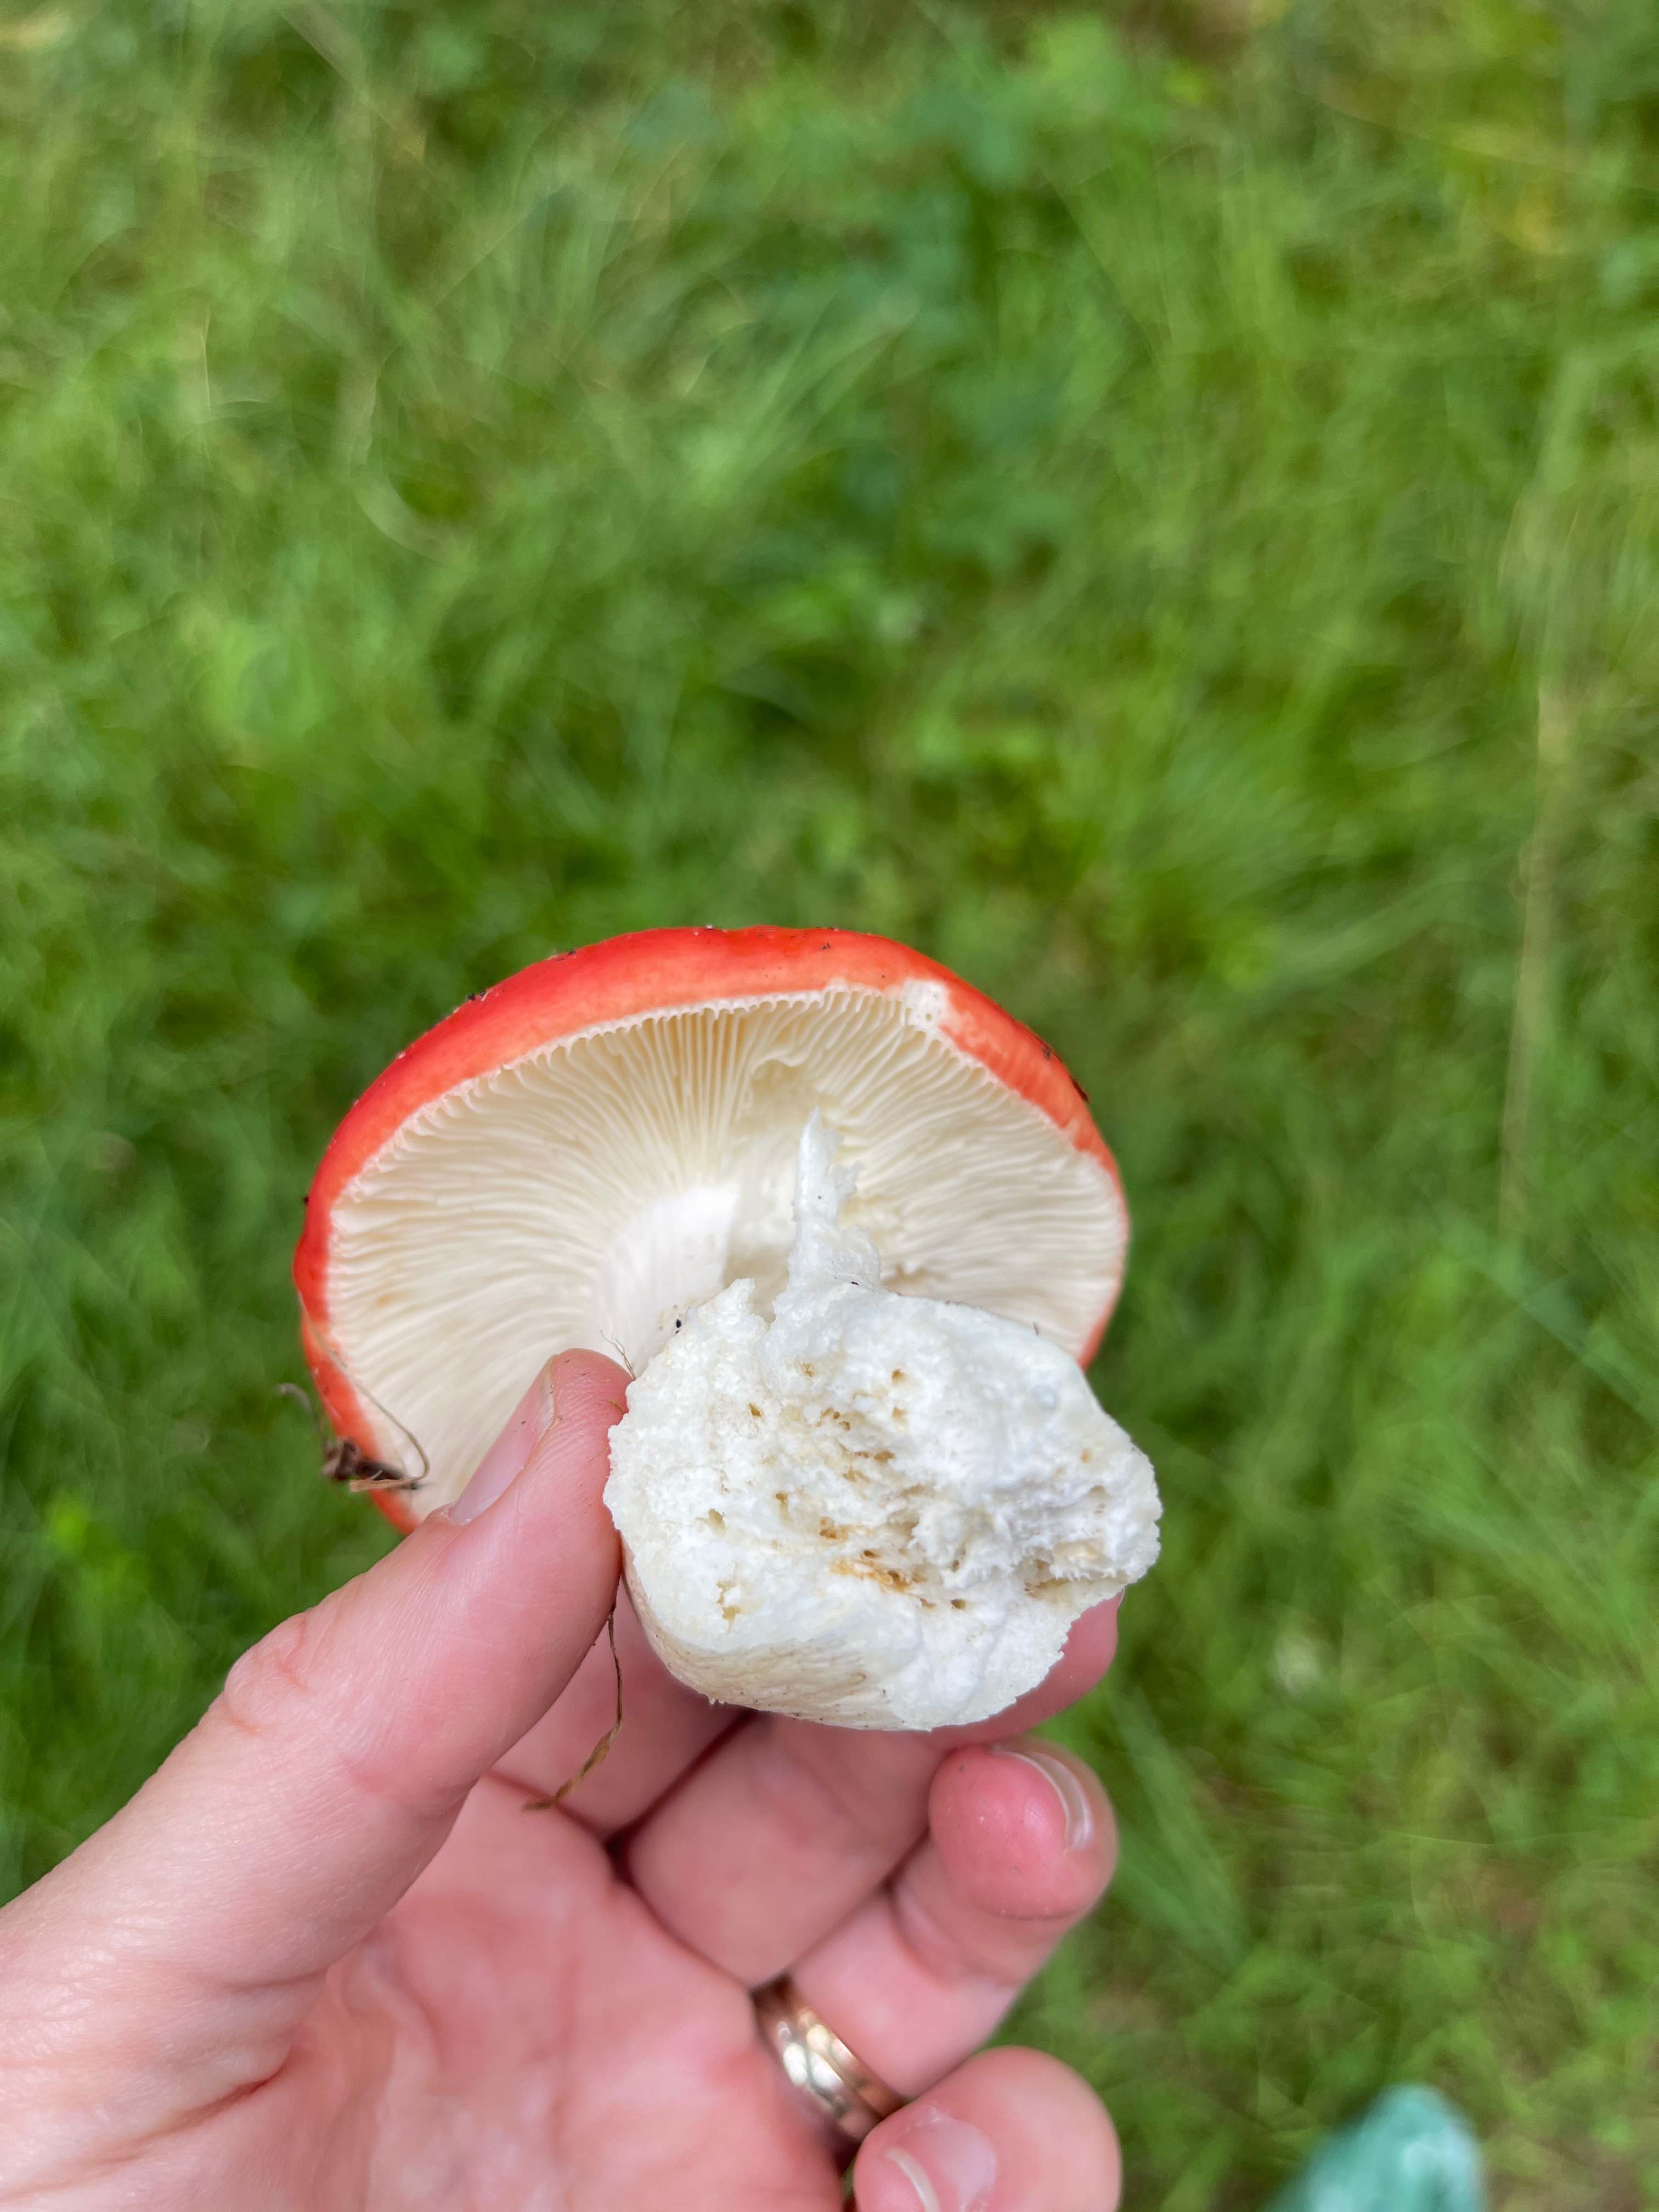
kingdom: Fungi
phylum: Basidiomycota
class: Agaricomycetes
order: Russulales
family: Russulaceae
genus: Russula
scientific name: Russula
